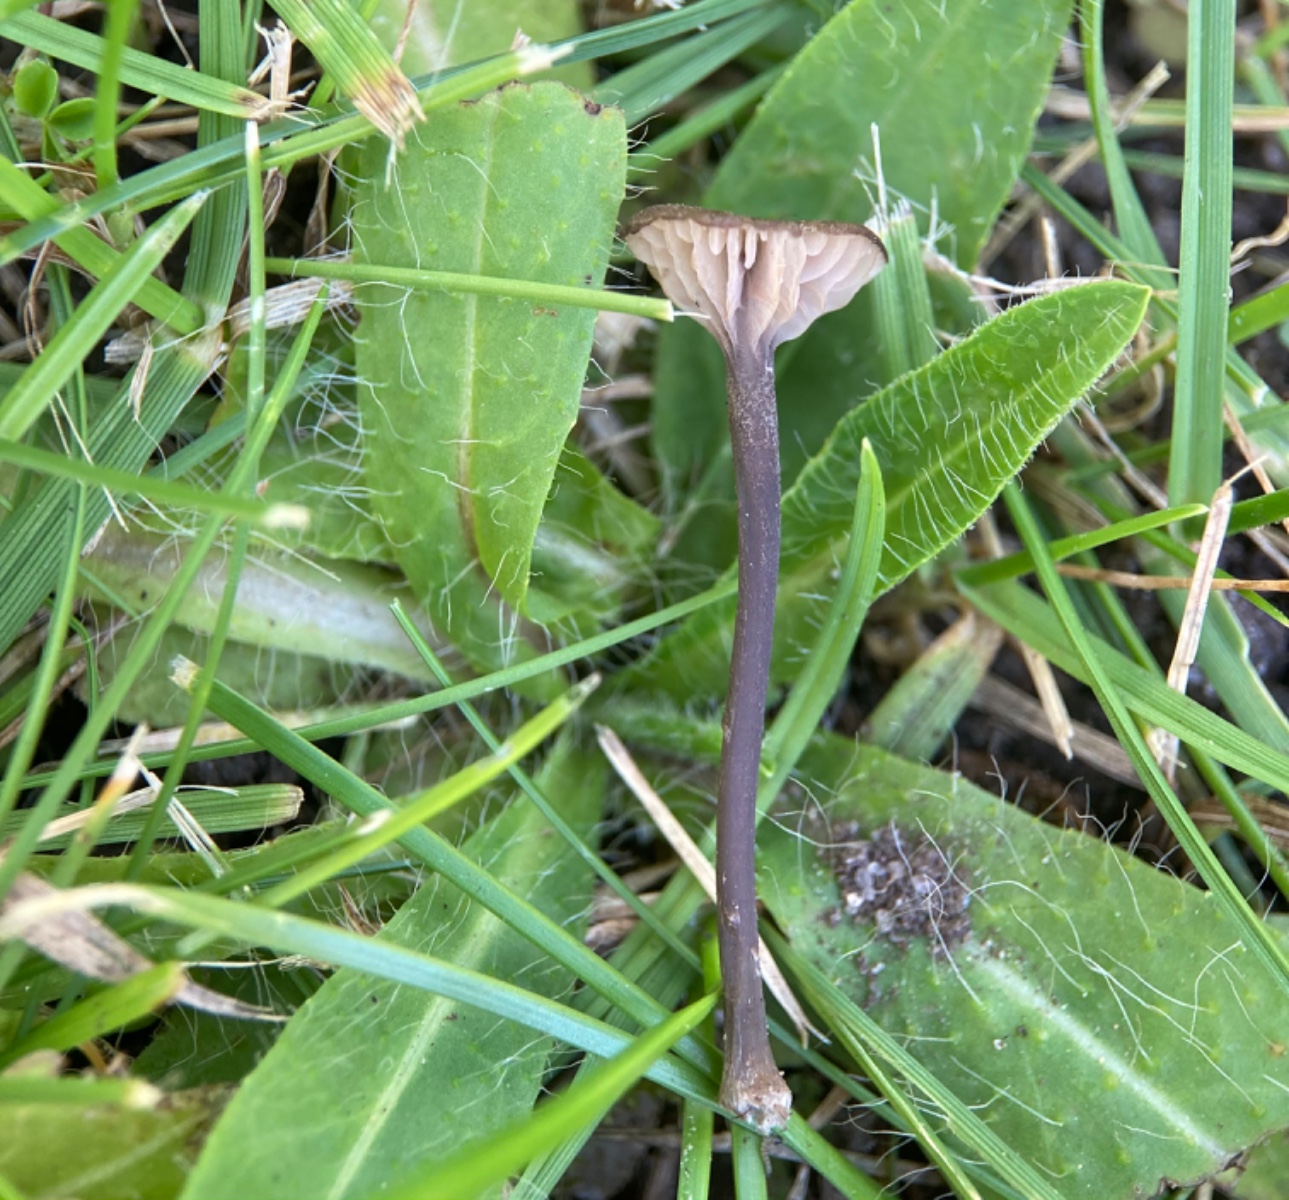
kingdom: Fungi
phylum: Basidiomycota
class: Agaricomycetes
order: Agaricales
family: Entolomataceae
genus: Entoloma
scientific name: Entoloma incarnatofuscescens
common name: tragt-rødblad
